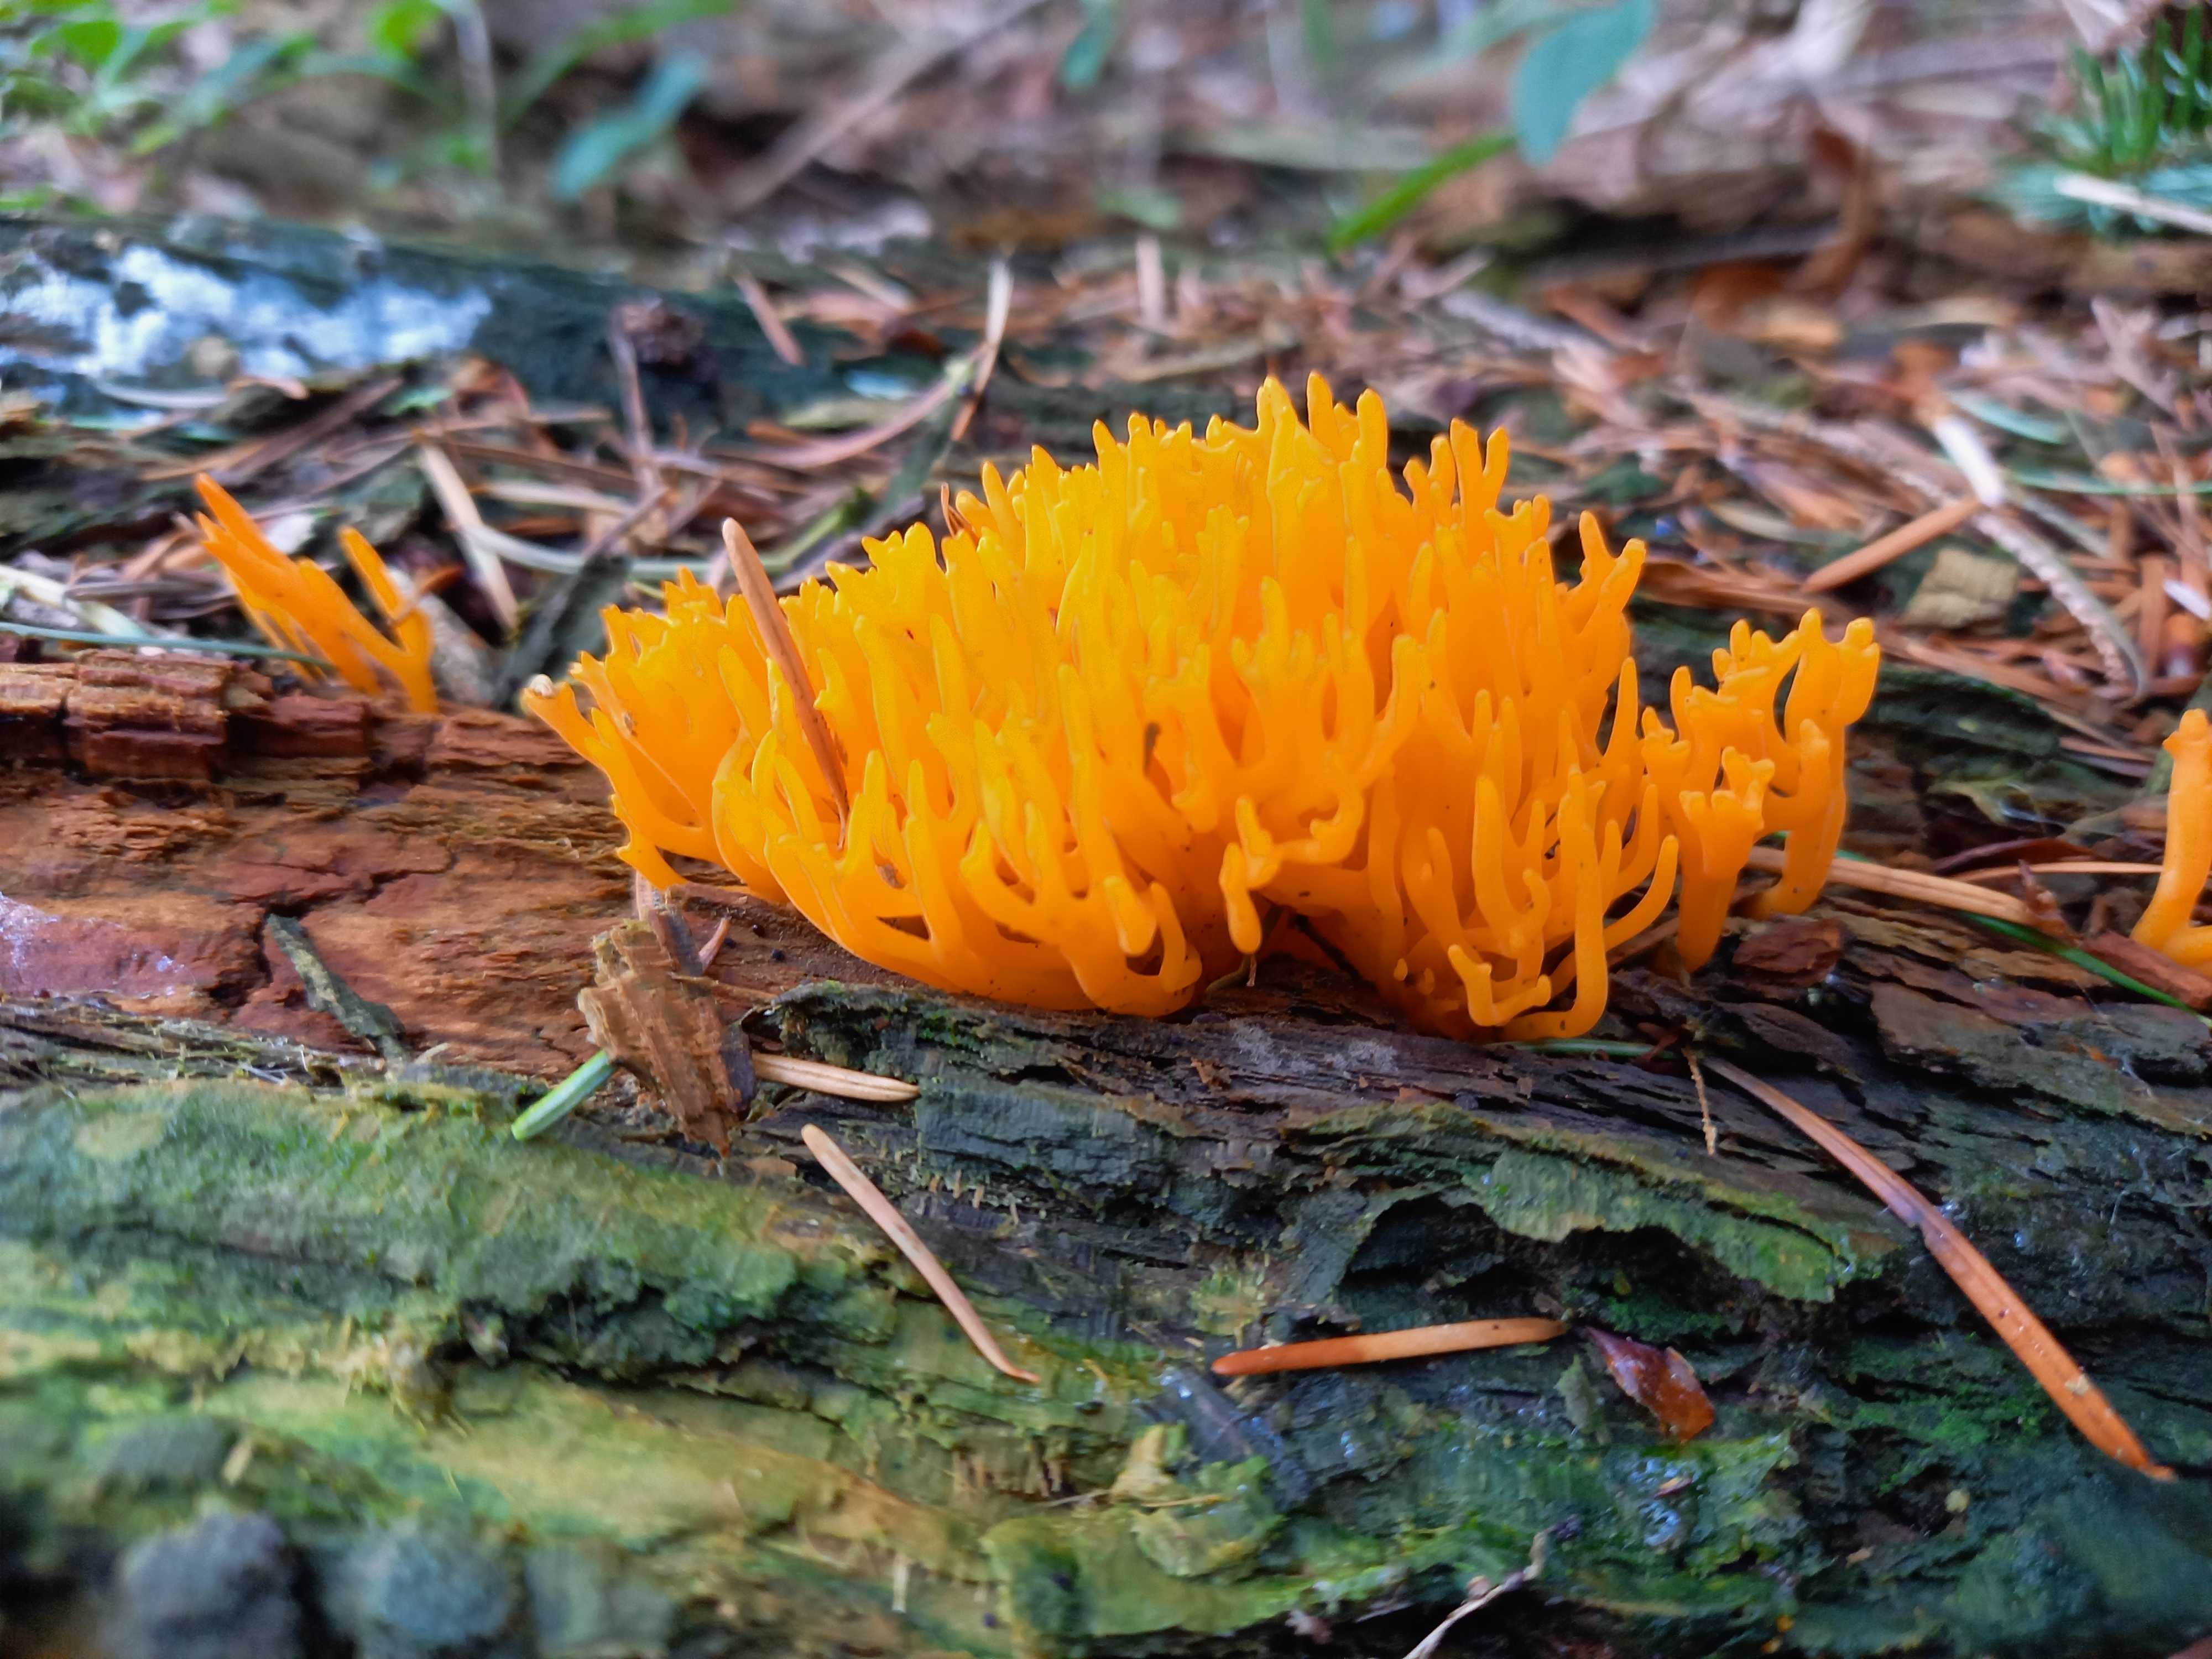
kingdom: Fungi
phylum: Basidiomycota
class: Dacrymycetes
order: Dacrymycetales
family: Dacrymycetaceae
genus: Calocera
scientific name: Calocera viscosa
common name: almindelig guldgaffel
